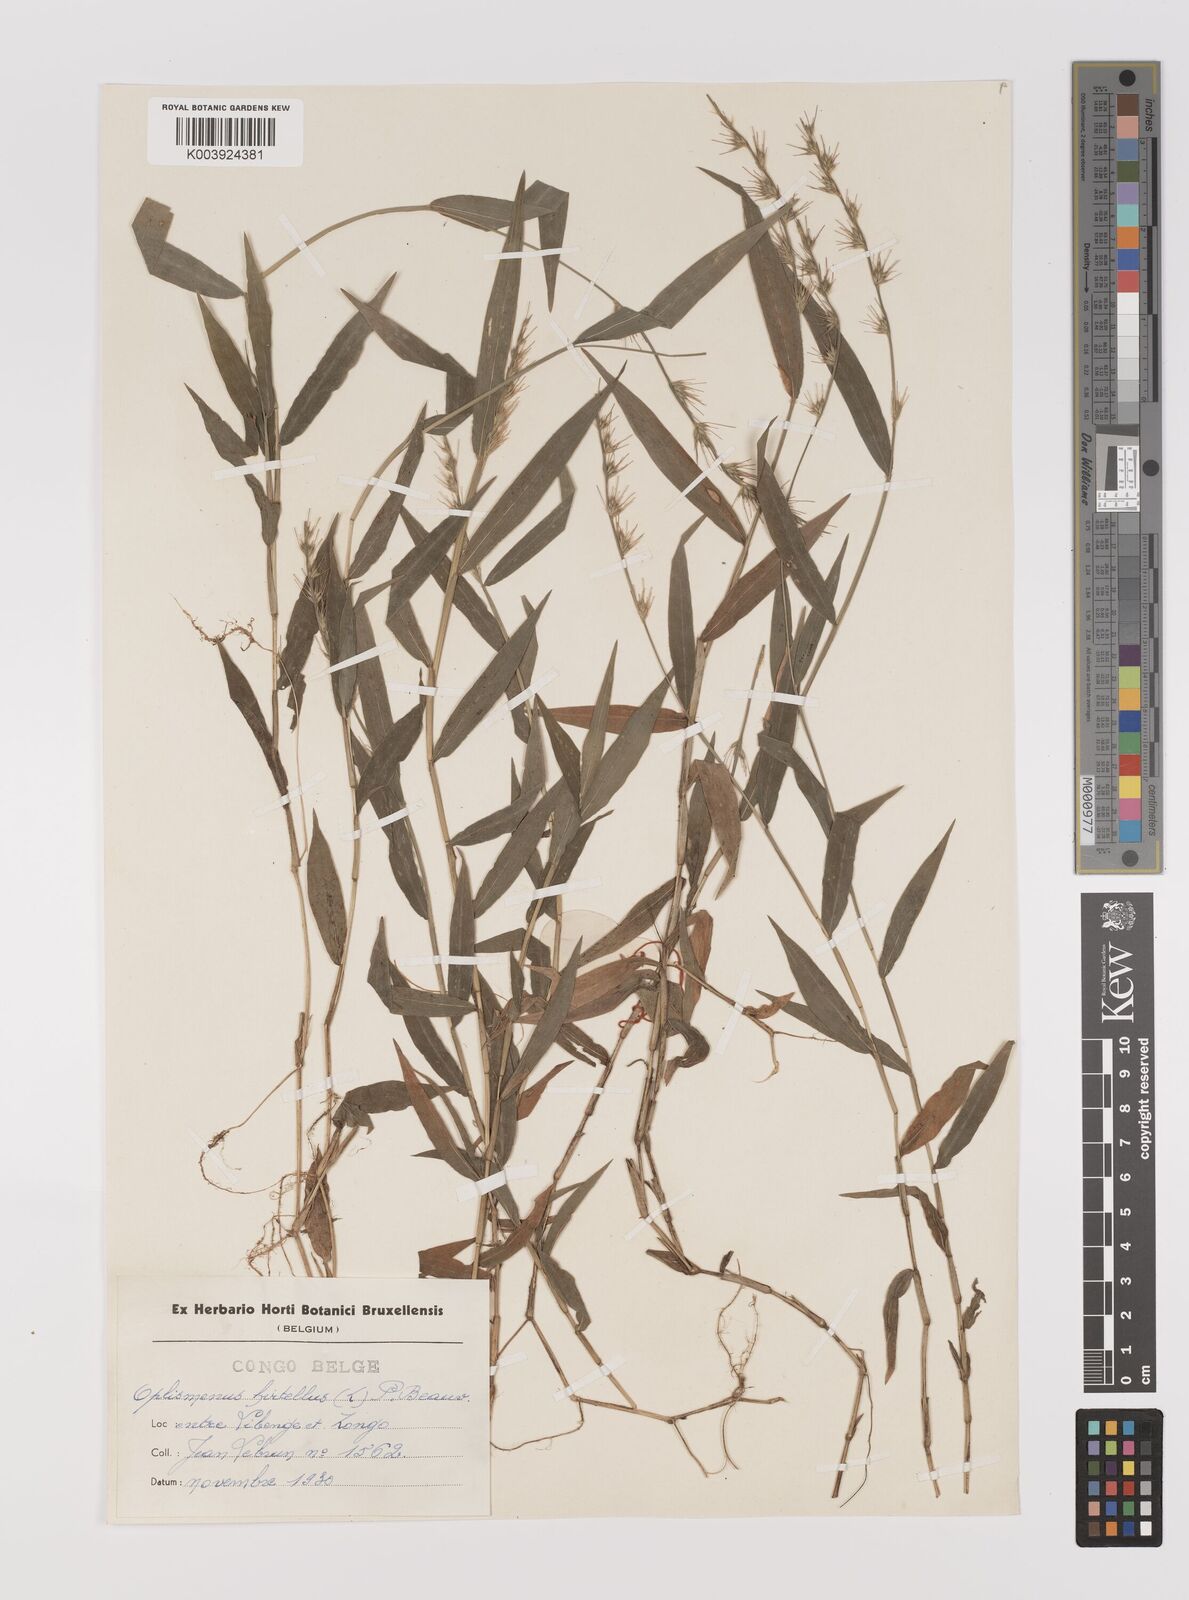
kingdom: Plantae
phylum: Tracheophyta
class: Liliopsida
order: Poales
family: Poaceae
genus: Oplismenus
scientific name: Oplismenus hirtellus
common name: Basketgrass
